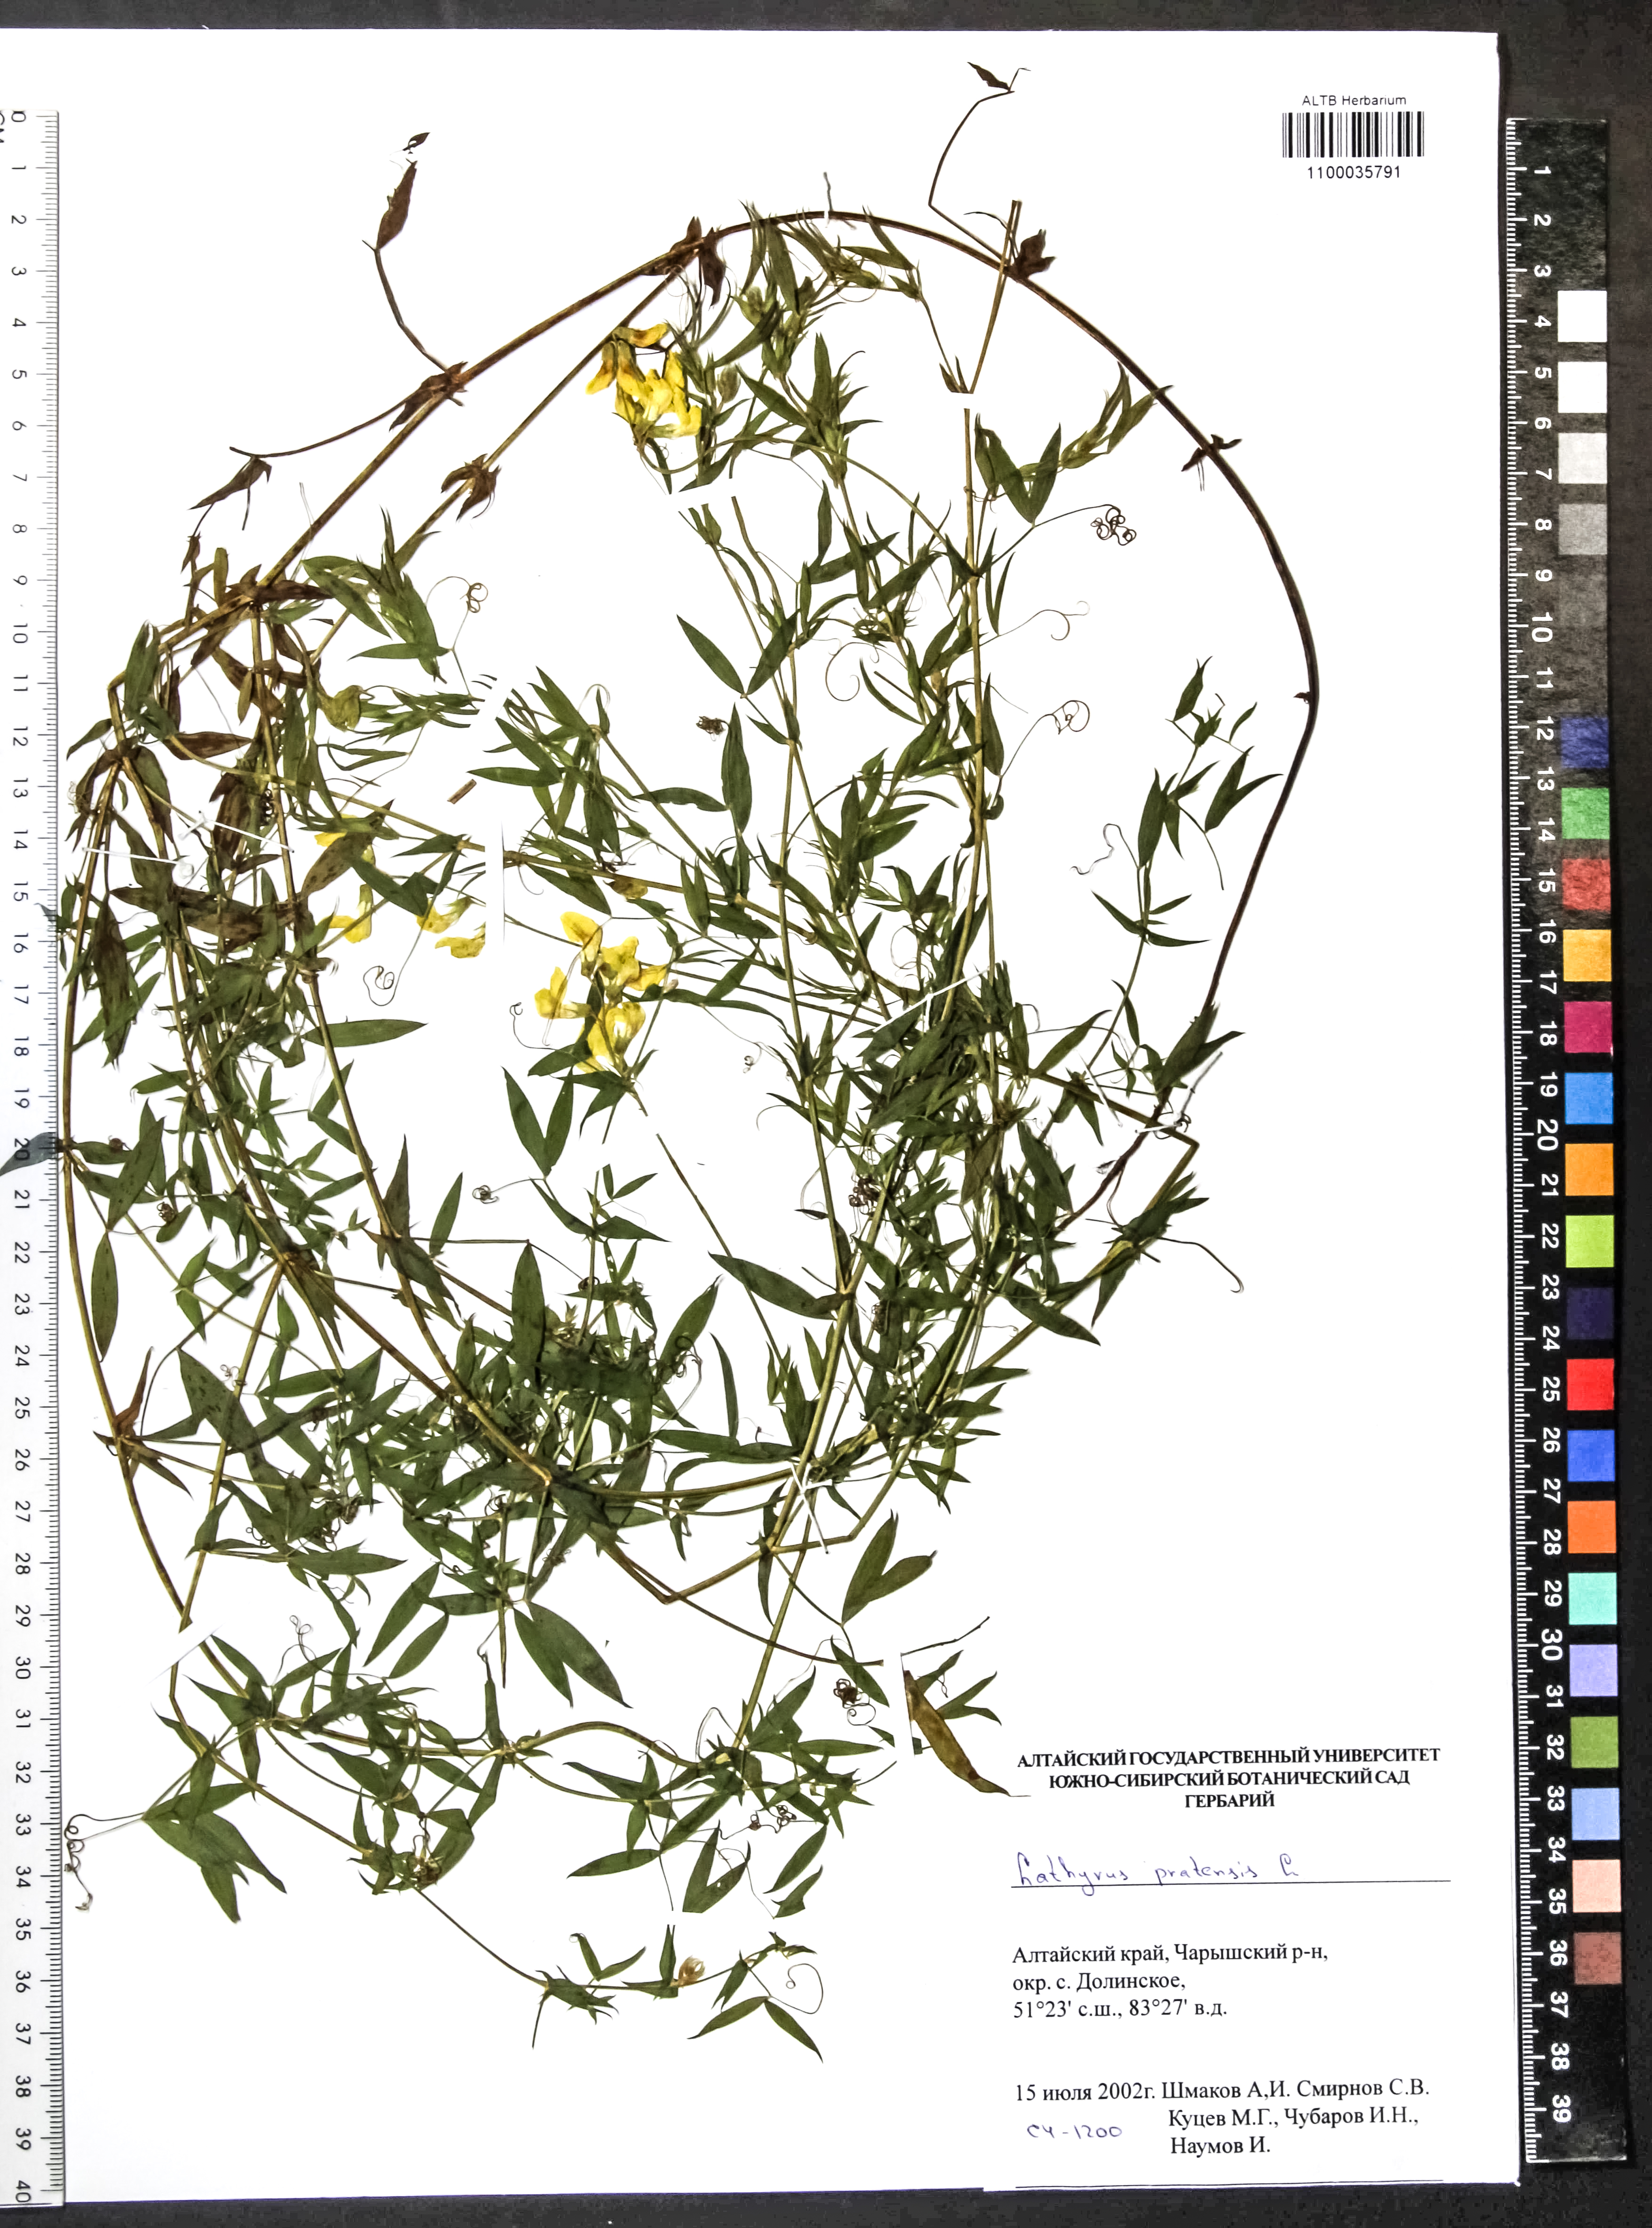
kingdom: Plantae
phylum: Tracheophyta
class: Magnoliopsida
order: Fabales
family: Fabaceae
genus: Lathyrus
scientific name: Lathyrus pratensis
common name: Meadow vetchling
